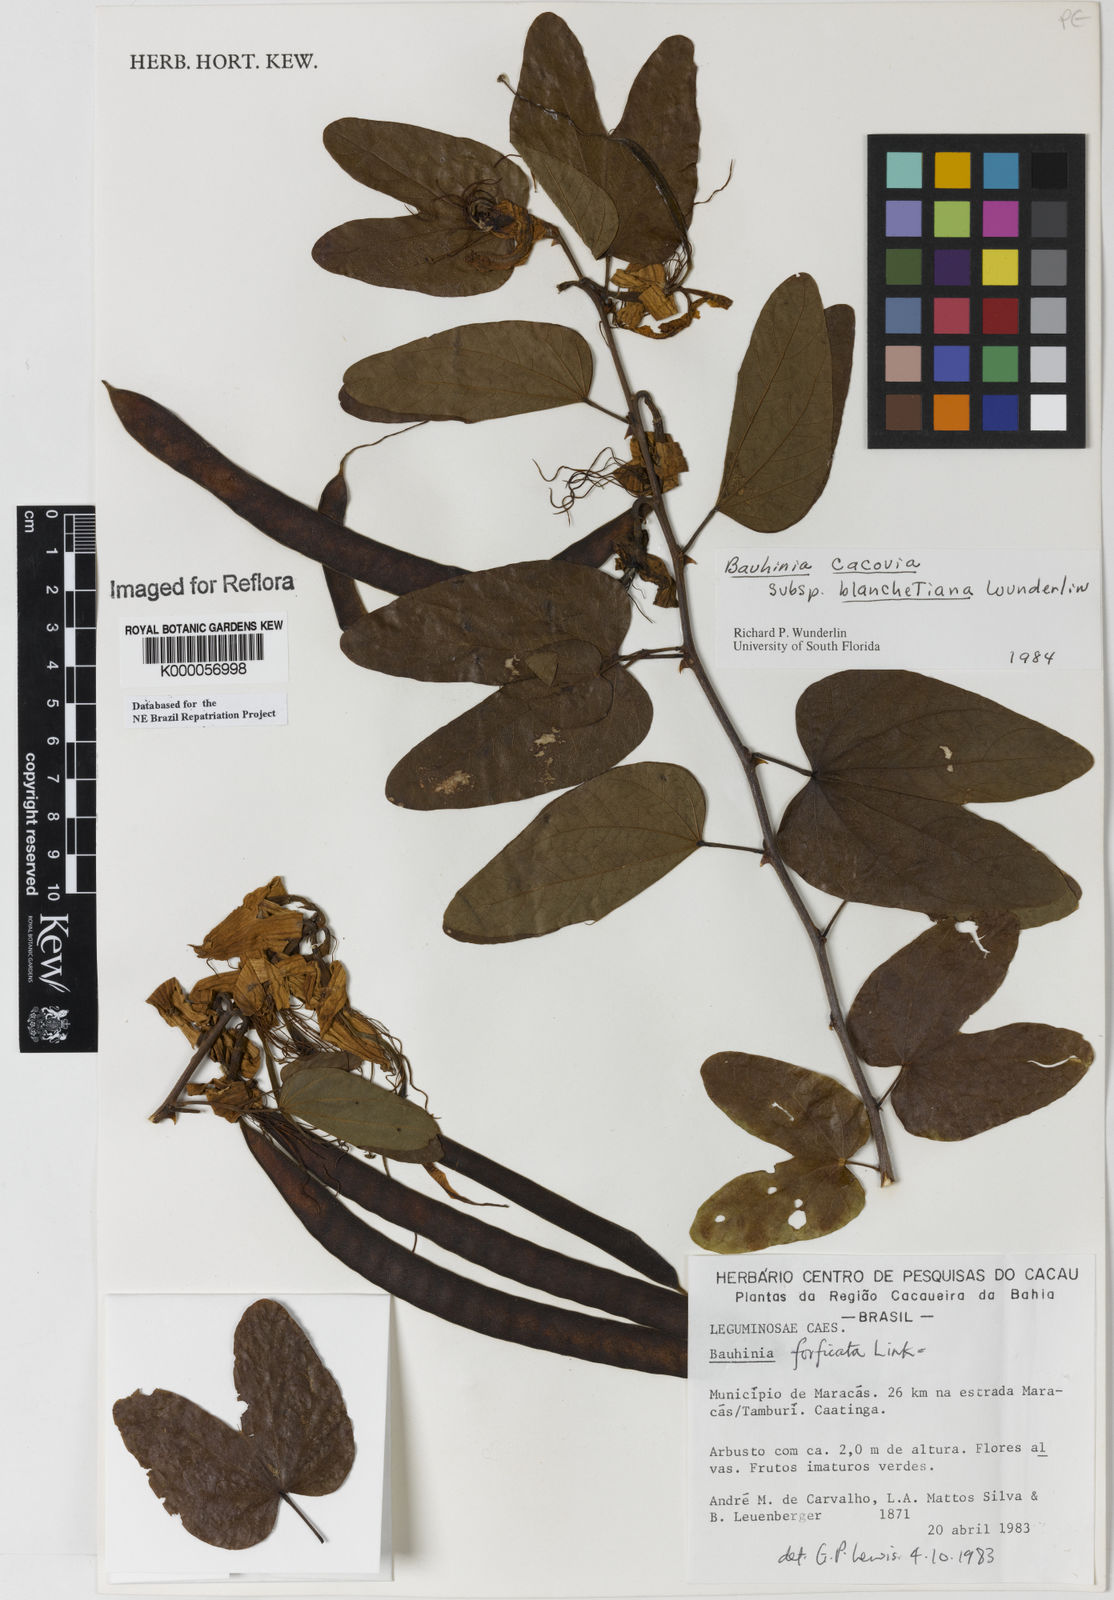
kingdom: Plantae
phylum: Tracheophyta
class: Magnoliopsida
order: Fabales
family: Fabaceae
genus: Bauhinia
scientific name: Bauhinia
